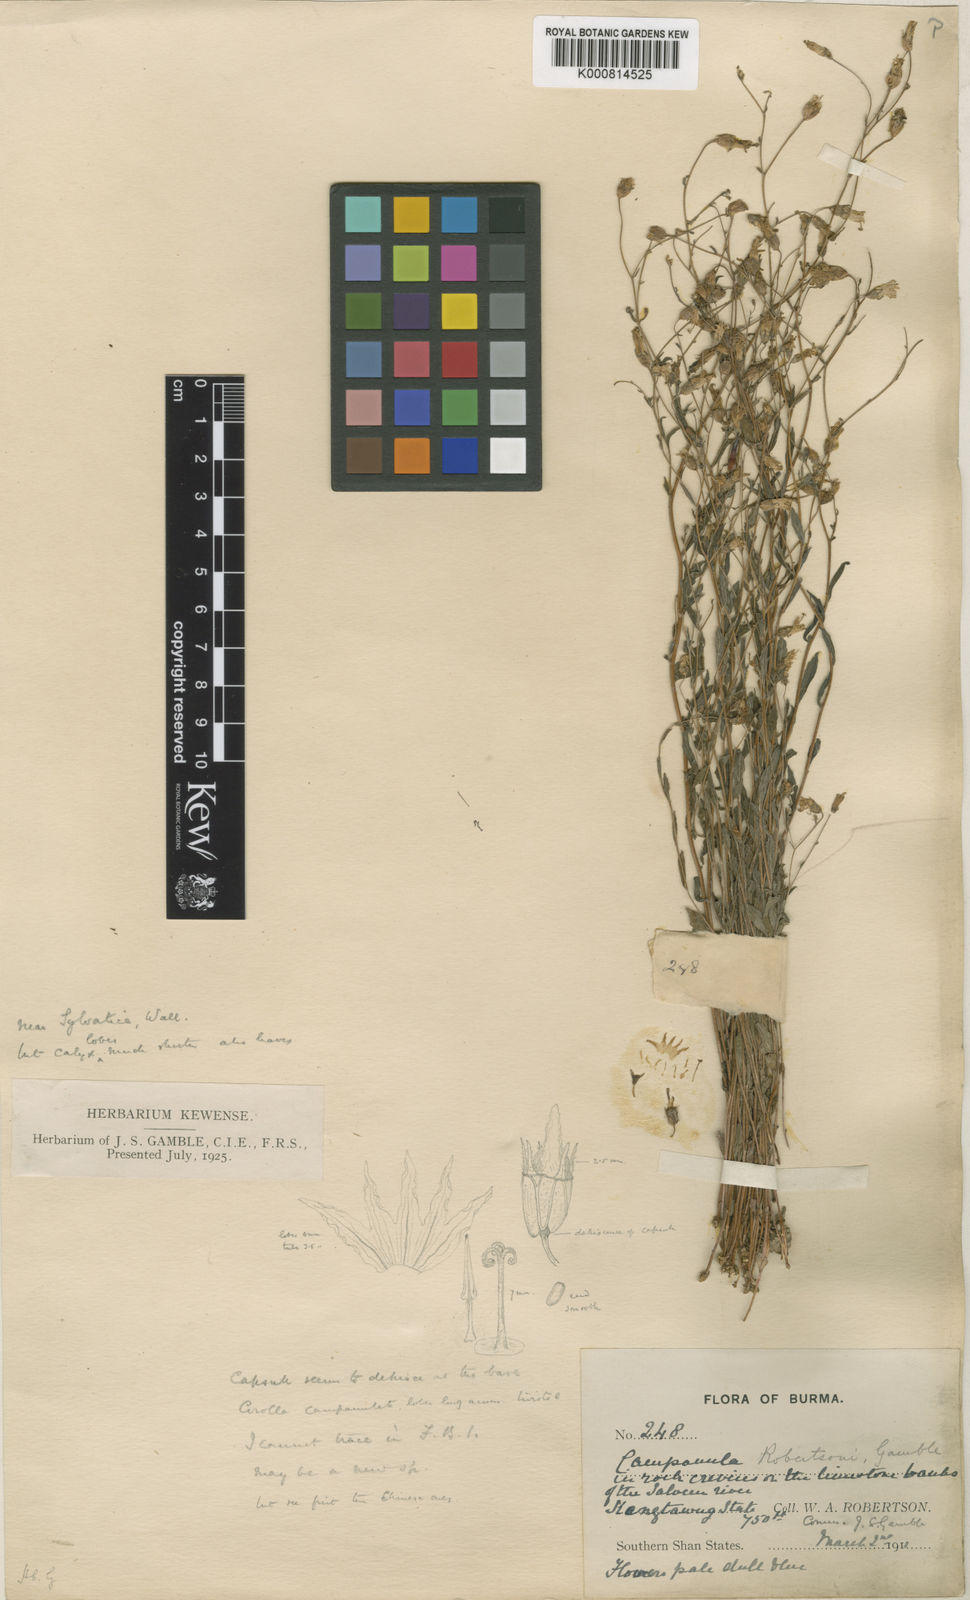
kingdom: Plantae
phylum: Tracheophyta
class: Magnoliopsida
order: Asterales
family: Campanulaceae
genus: Campanula
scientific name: Campanula robertsonii
